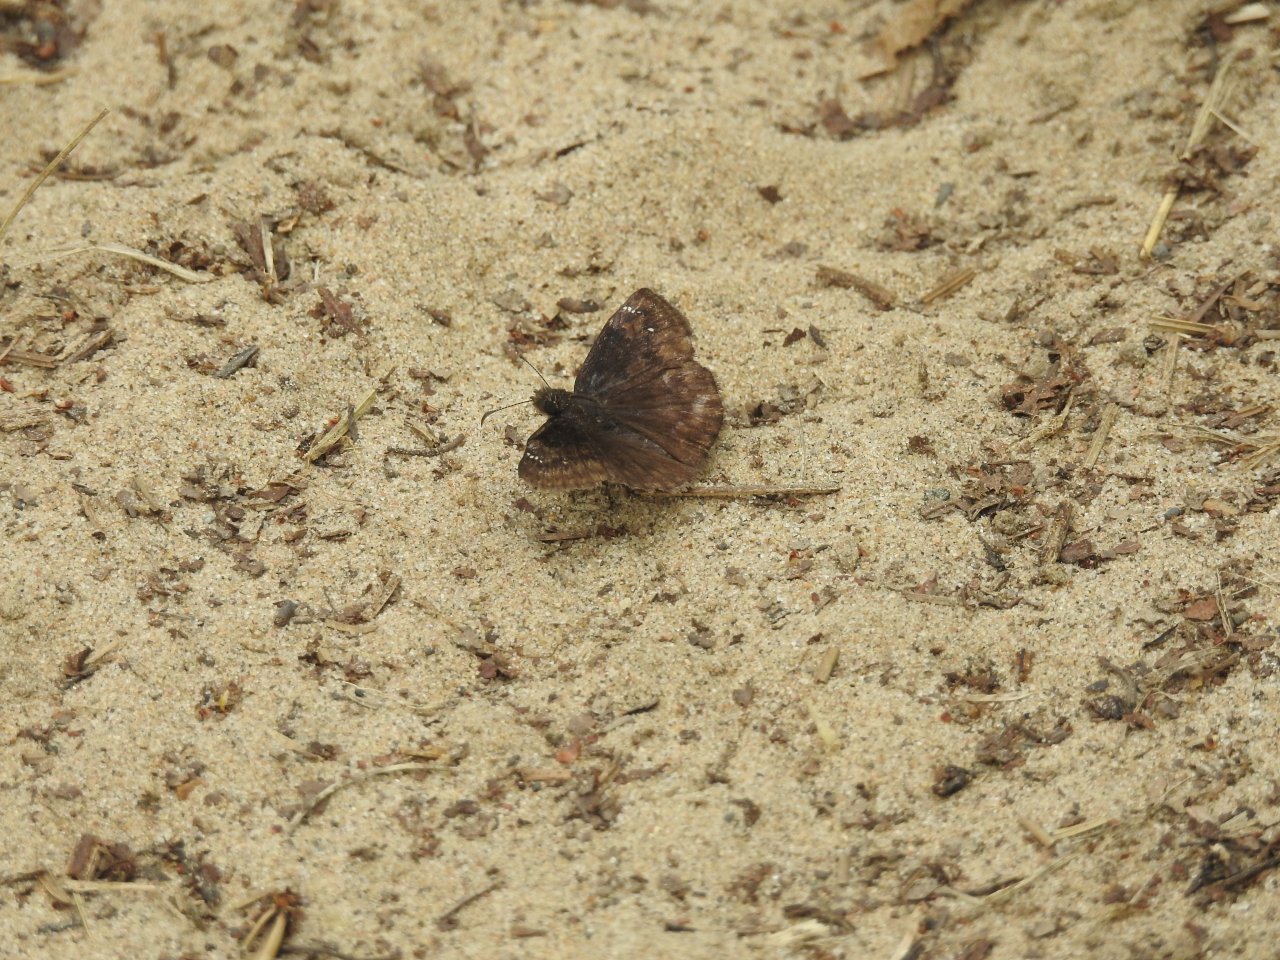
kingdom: Animalia
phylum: Arthropoda
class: Insecta
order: Lepidoptera
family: Hesperiidae
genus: Gesta
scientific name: Gesta
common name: Wild Indigo Duskywing
